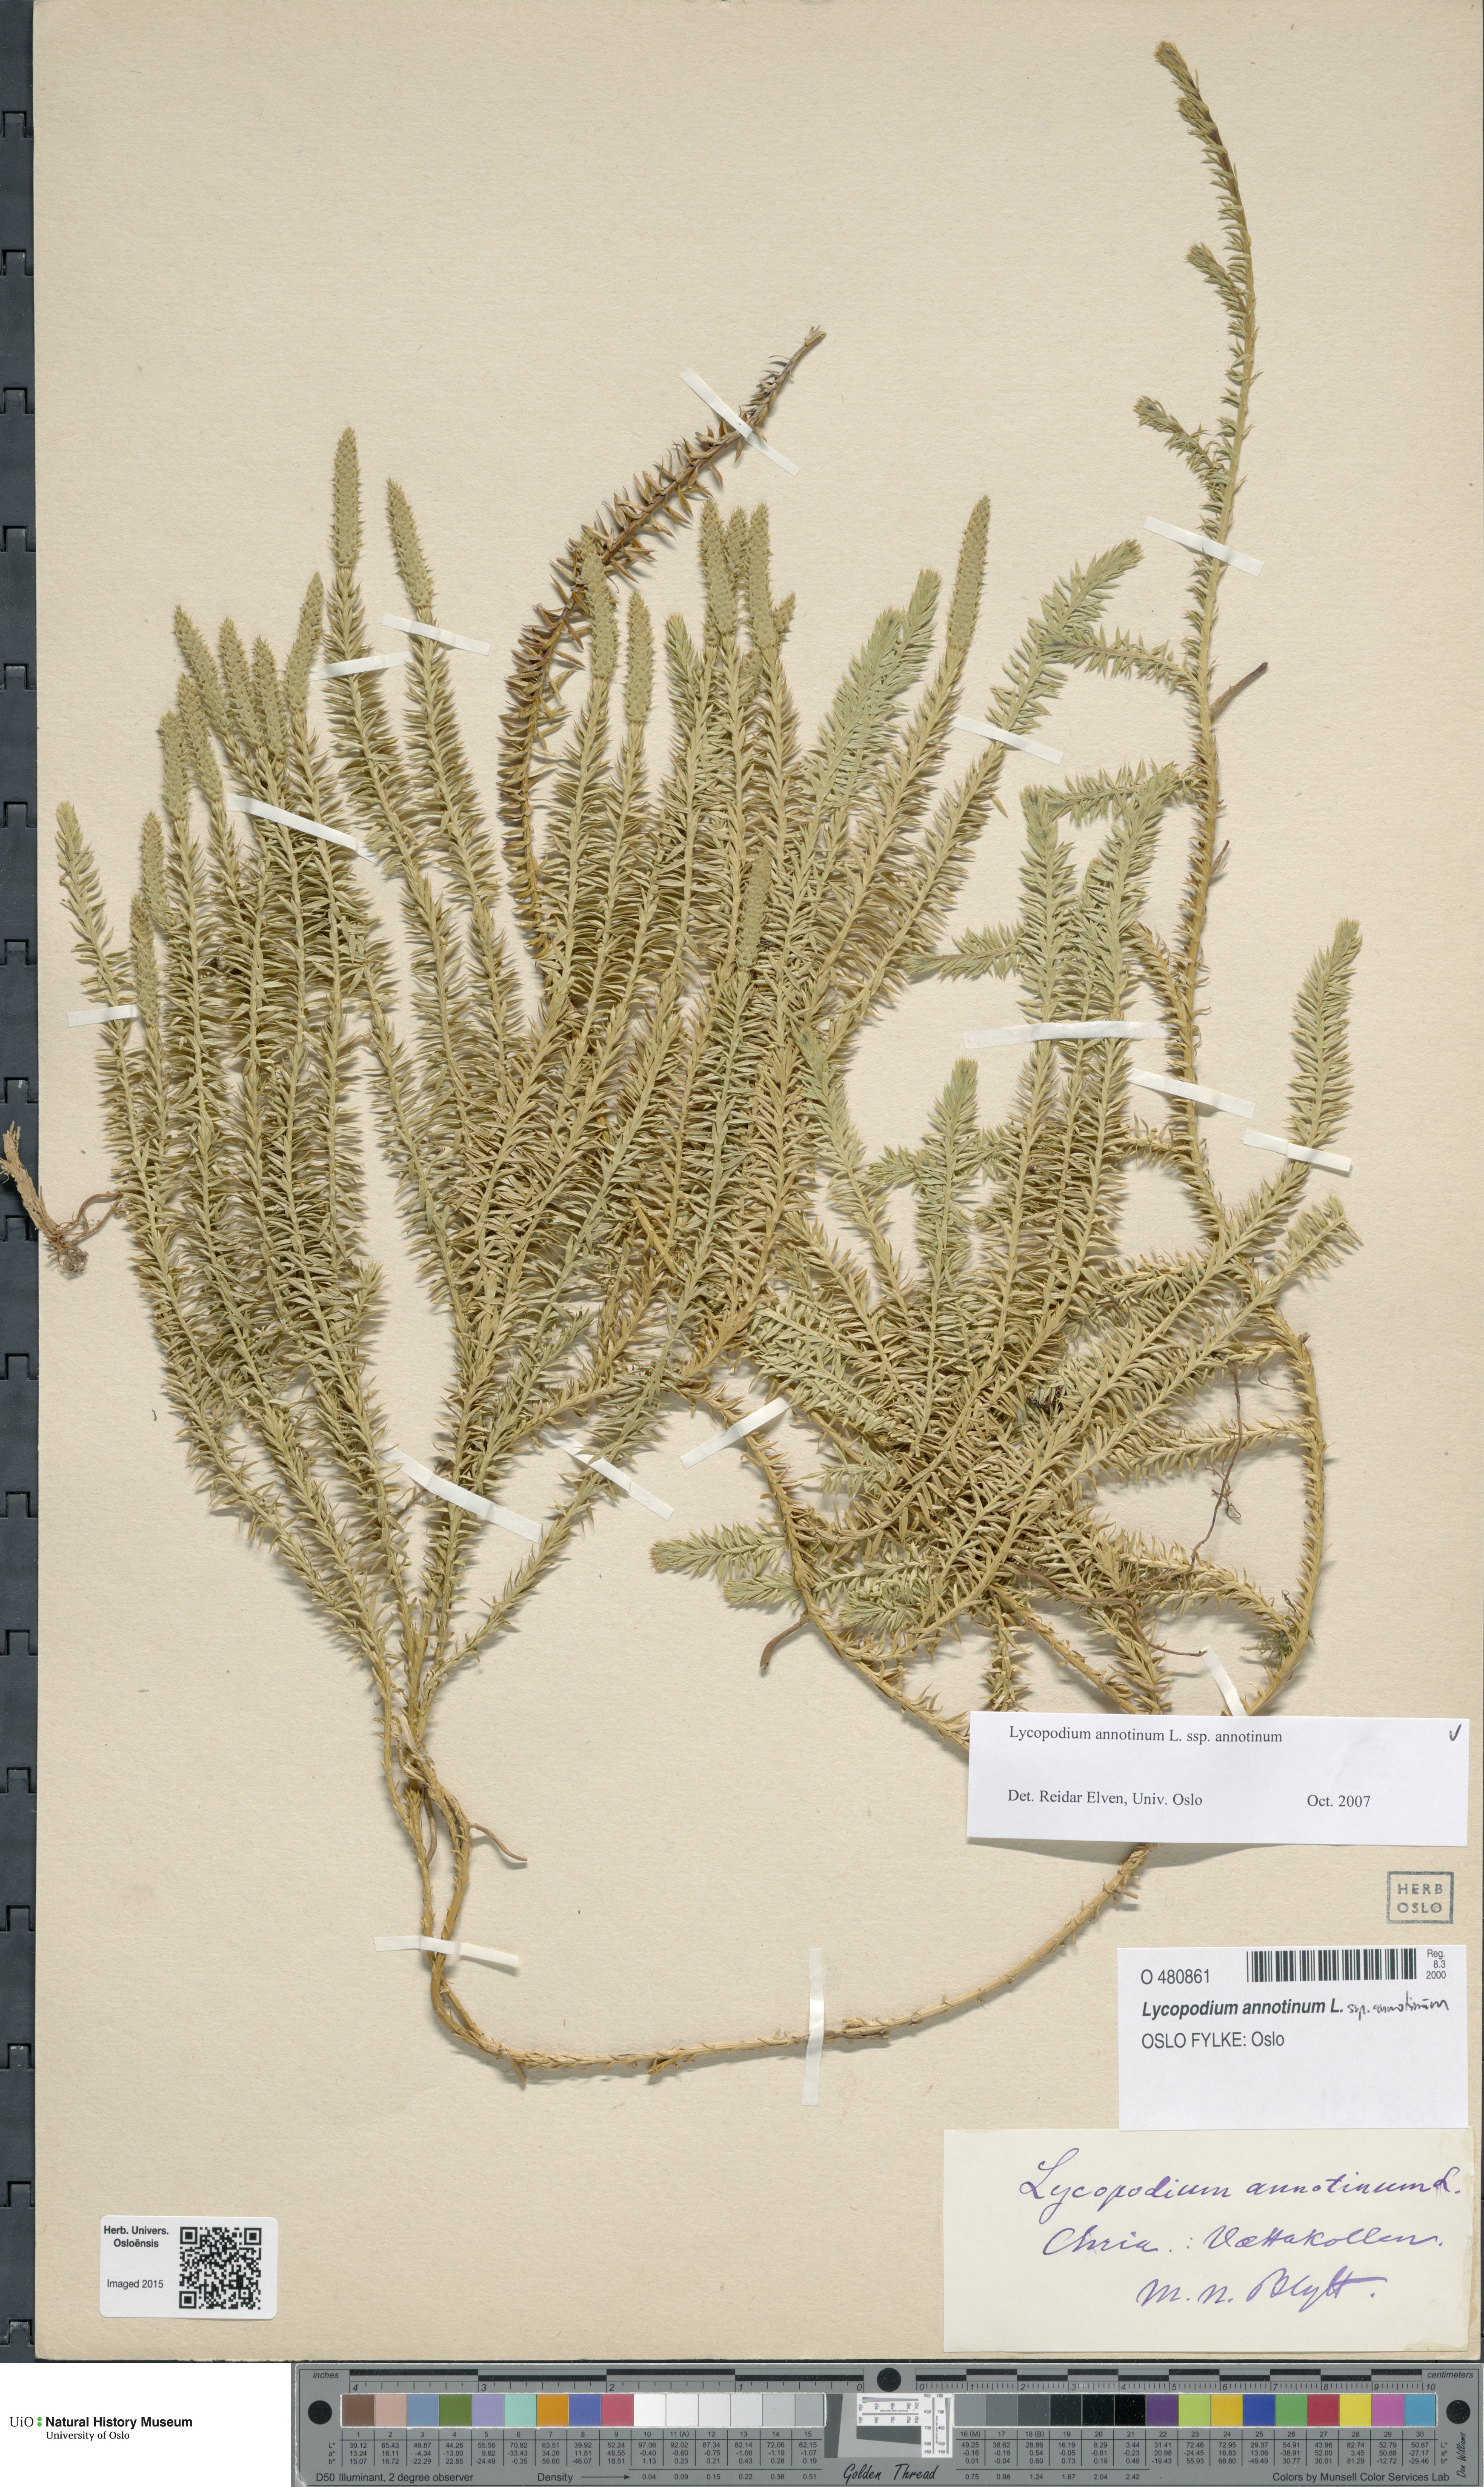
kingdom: Plantae
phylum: Tracheophyta
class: Lycopodiopsida
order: Lycopodiales
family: Lycopodiaceae
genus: Spinulum
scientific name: Spinulum annotinum
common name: Interrupted club-moss
